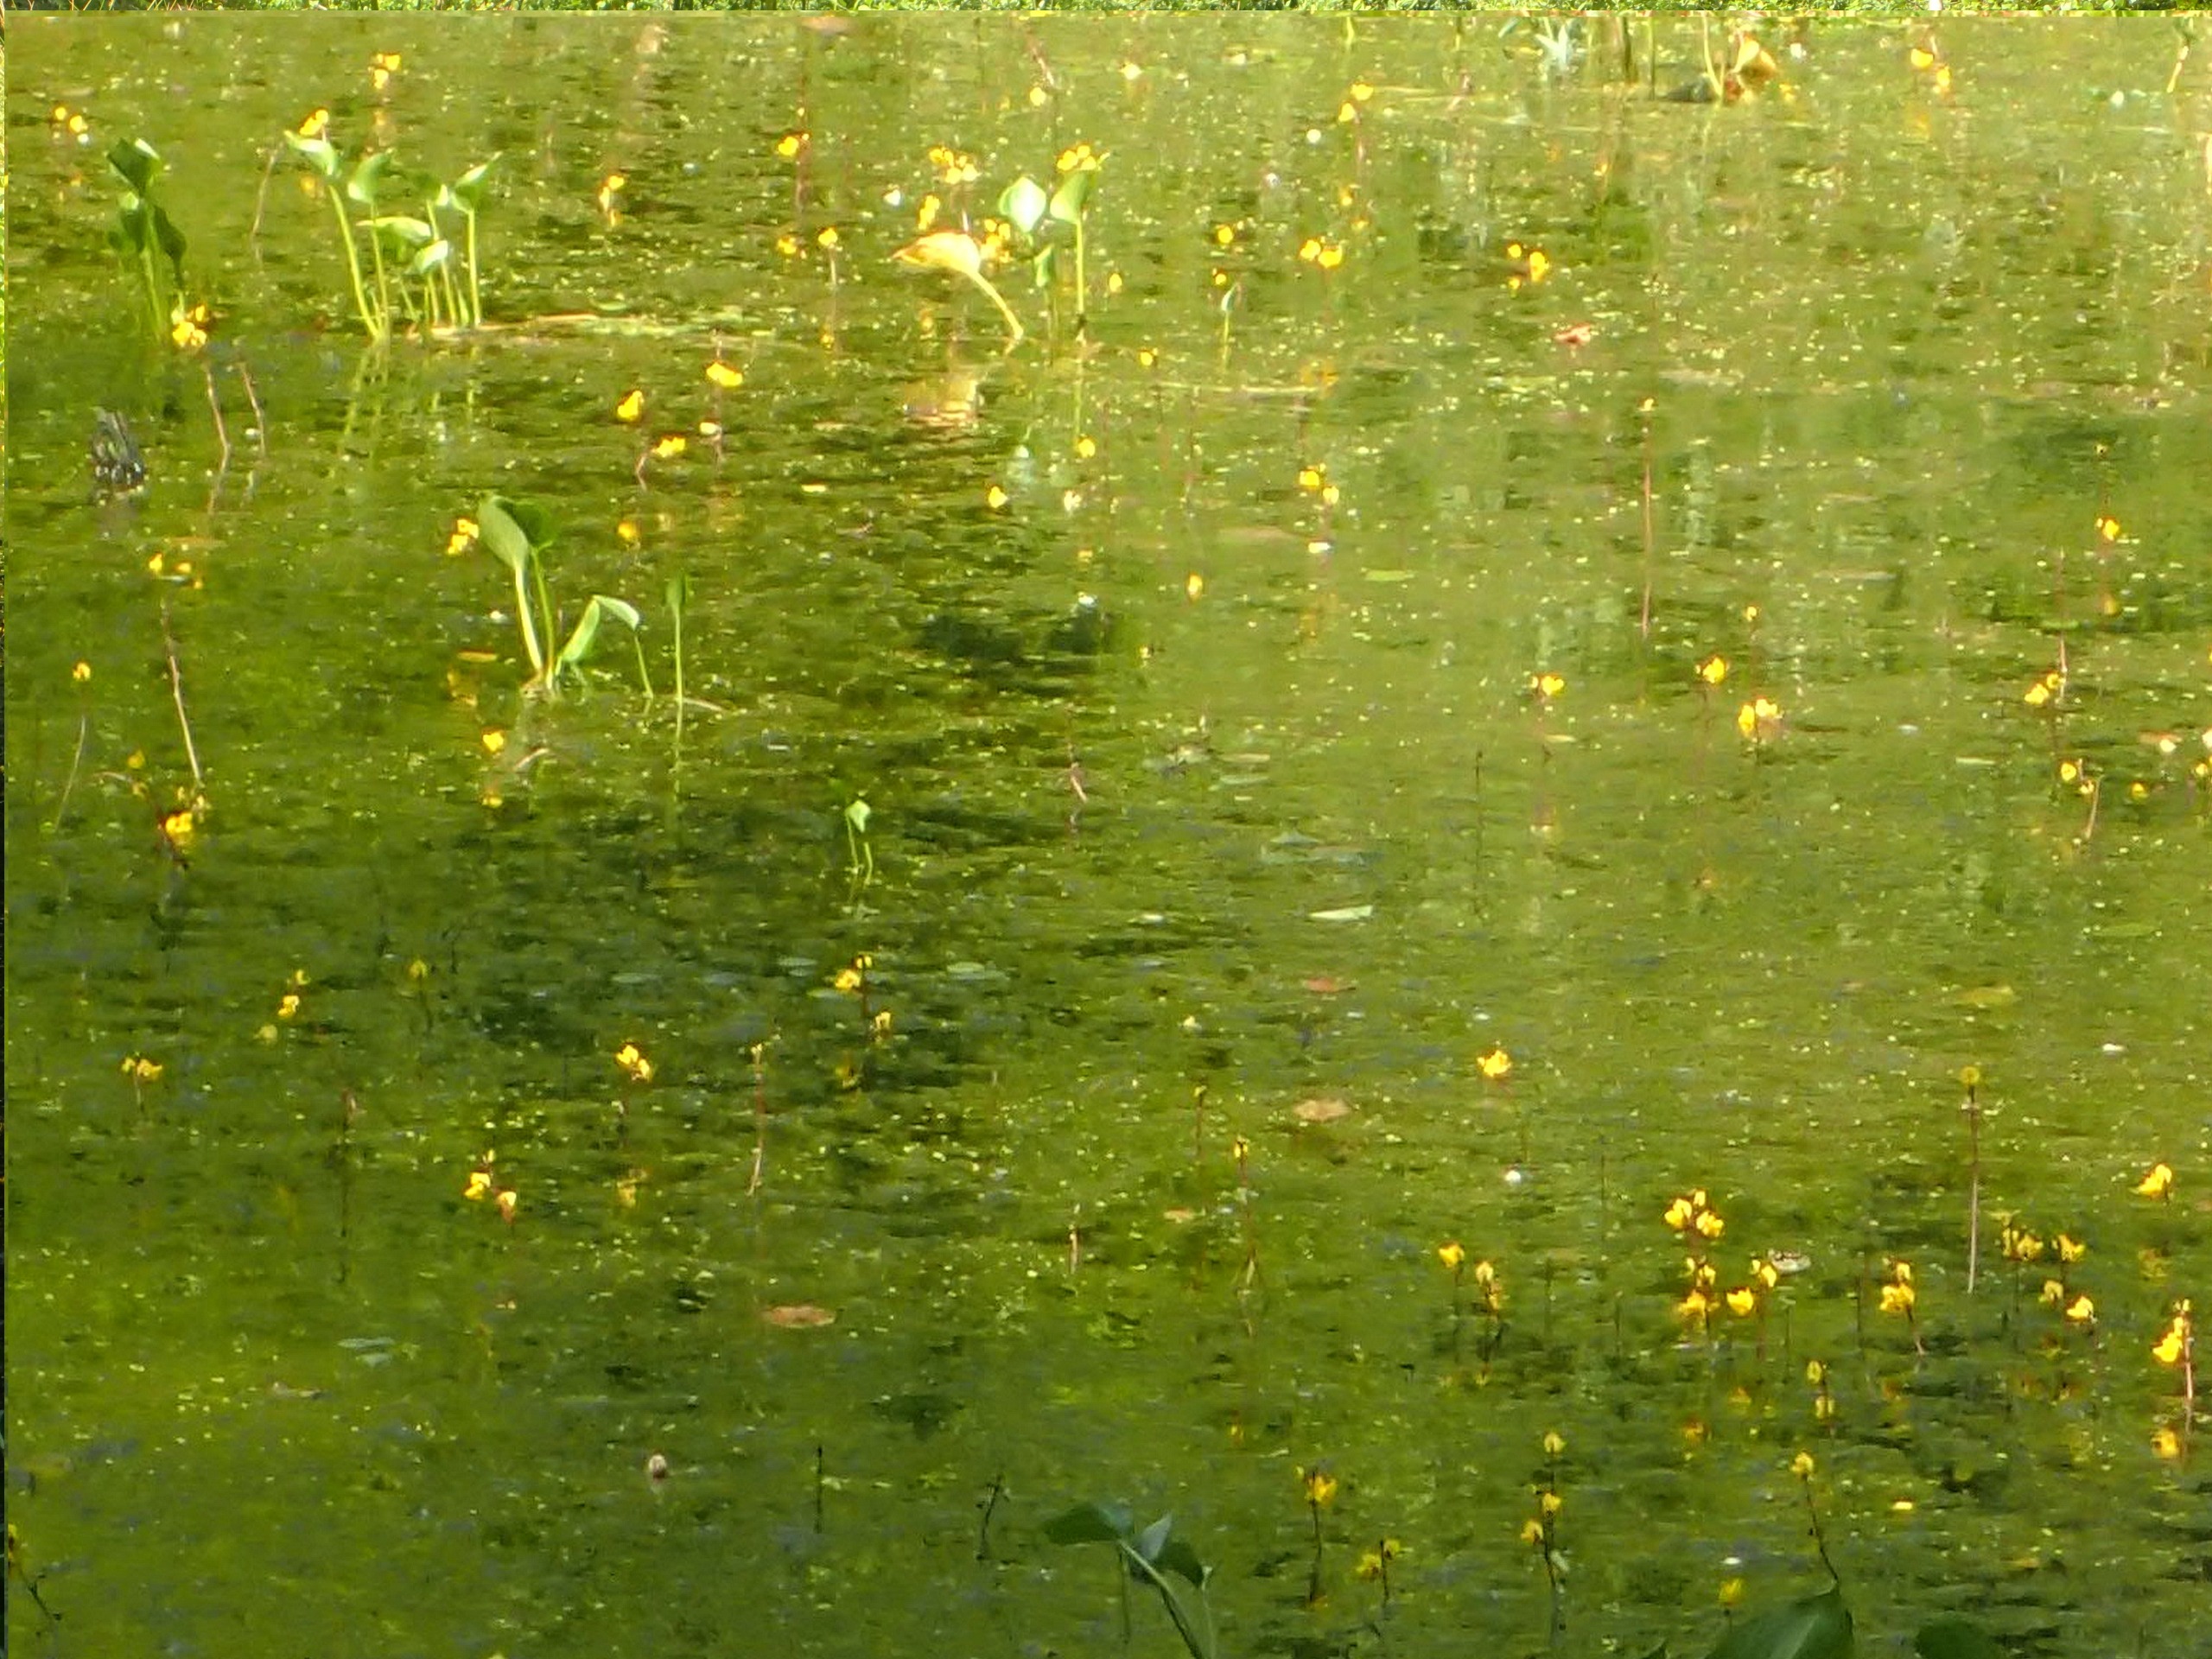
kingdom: Plantae
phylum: Tracheophyta
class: Magnoliopsida
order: Lamiales
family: Lentibulariaceae
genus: Utricularia
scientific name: Utricularia vulgaris
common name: Almindelig blærerod
